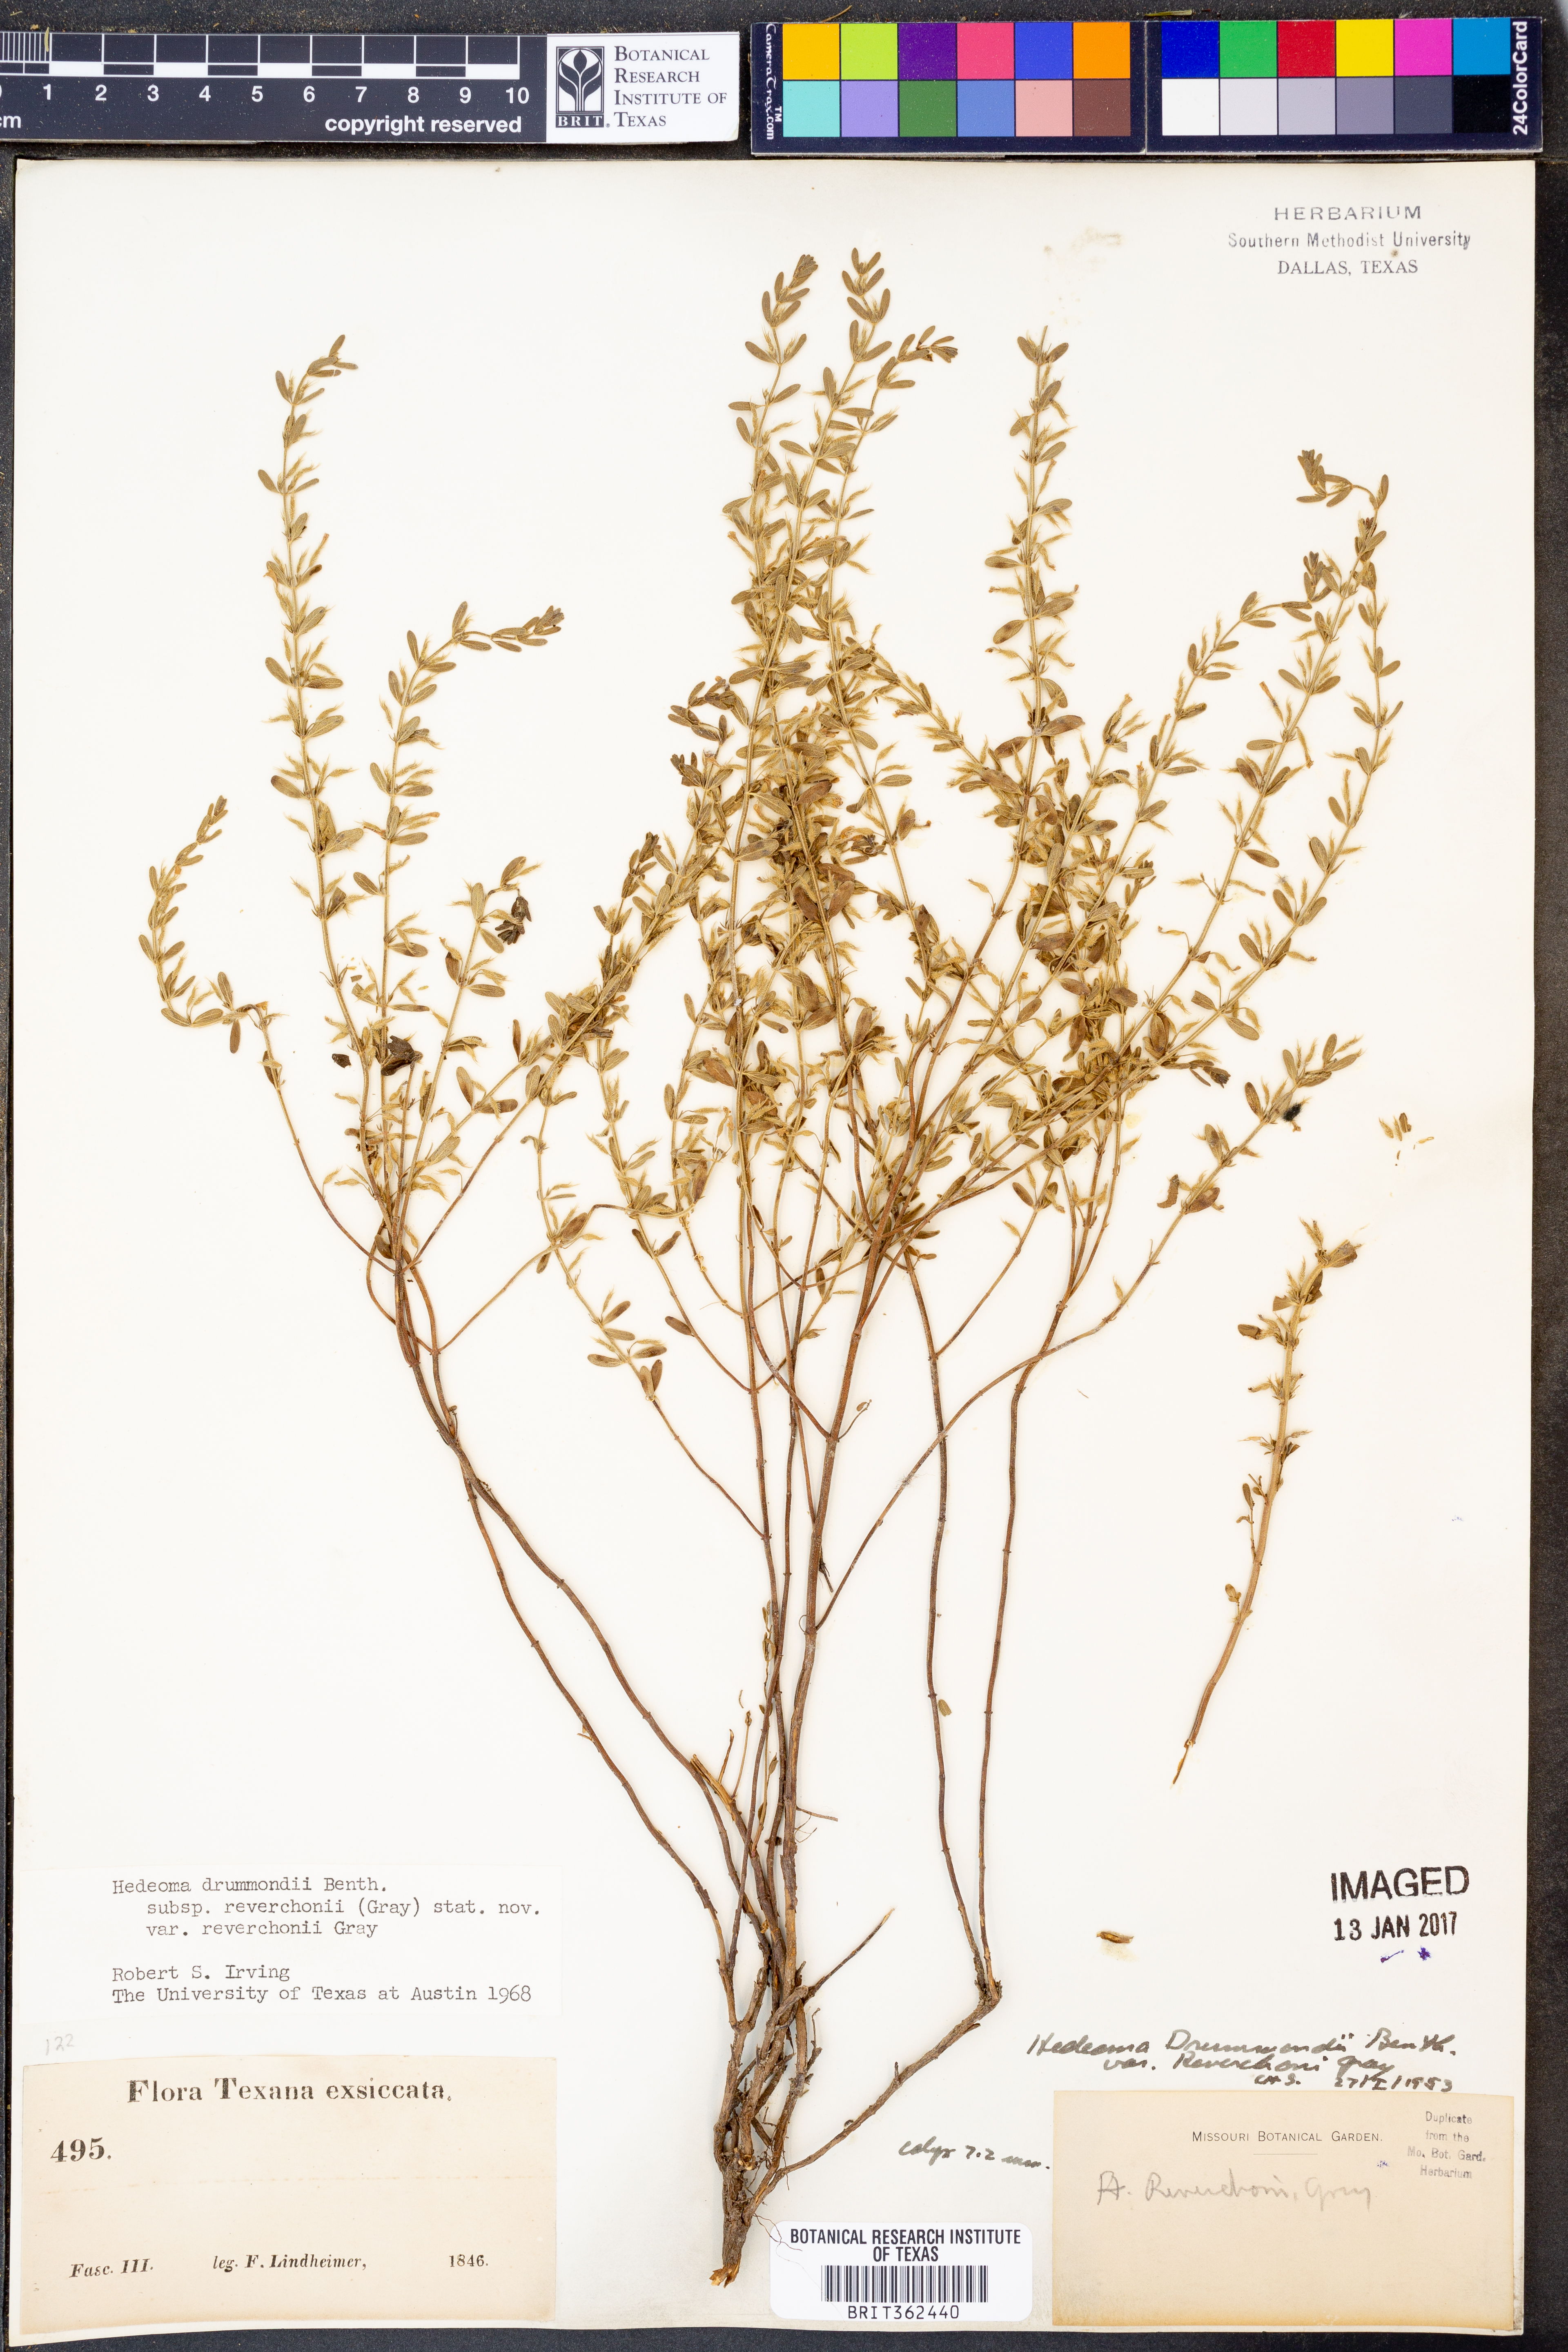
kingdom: Plantae
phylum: Tracheophyta
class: Magnoliopsida
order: Lamiales
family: Lamiaceae
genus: Hedeoma
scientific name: Hedeoma reverchonii
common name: Reverchon's false penny-royal
